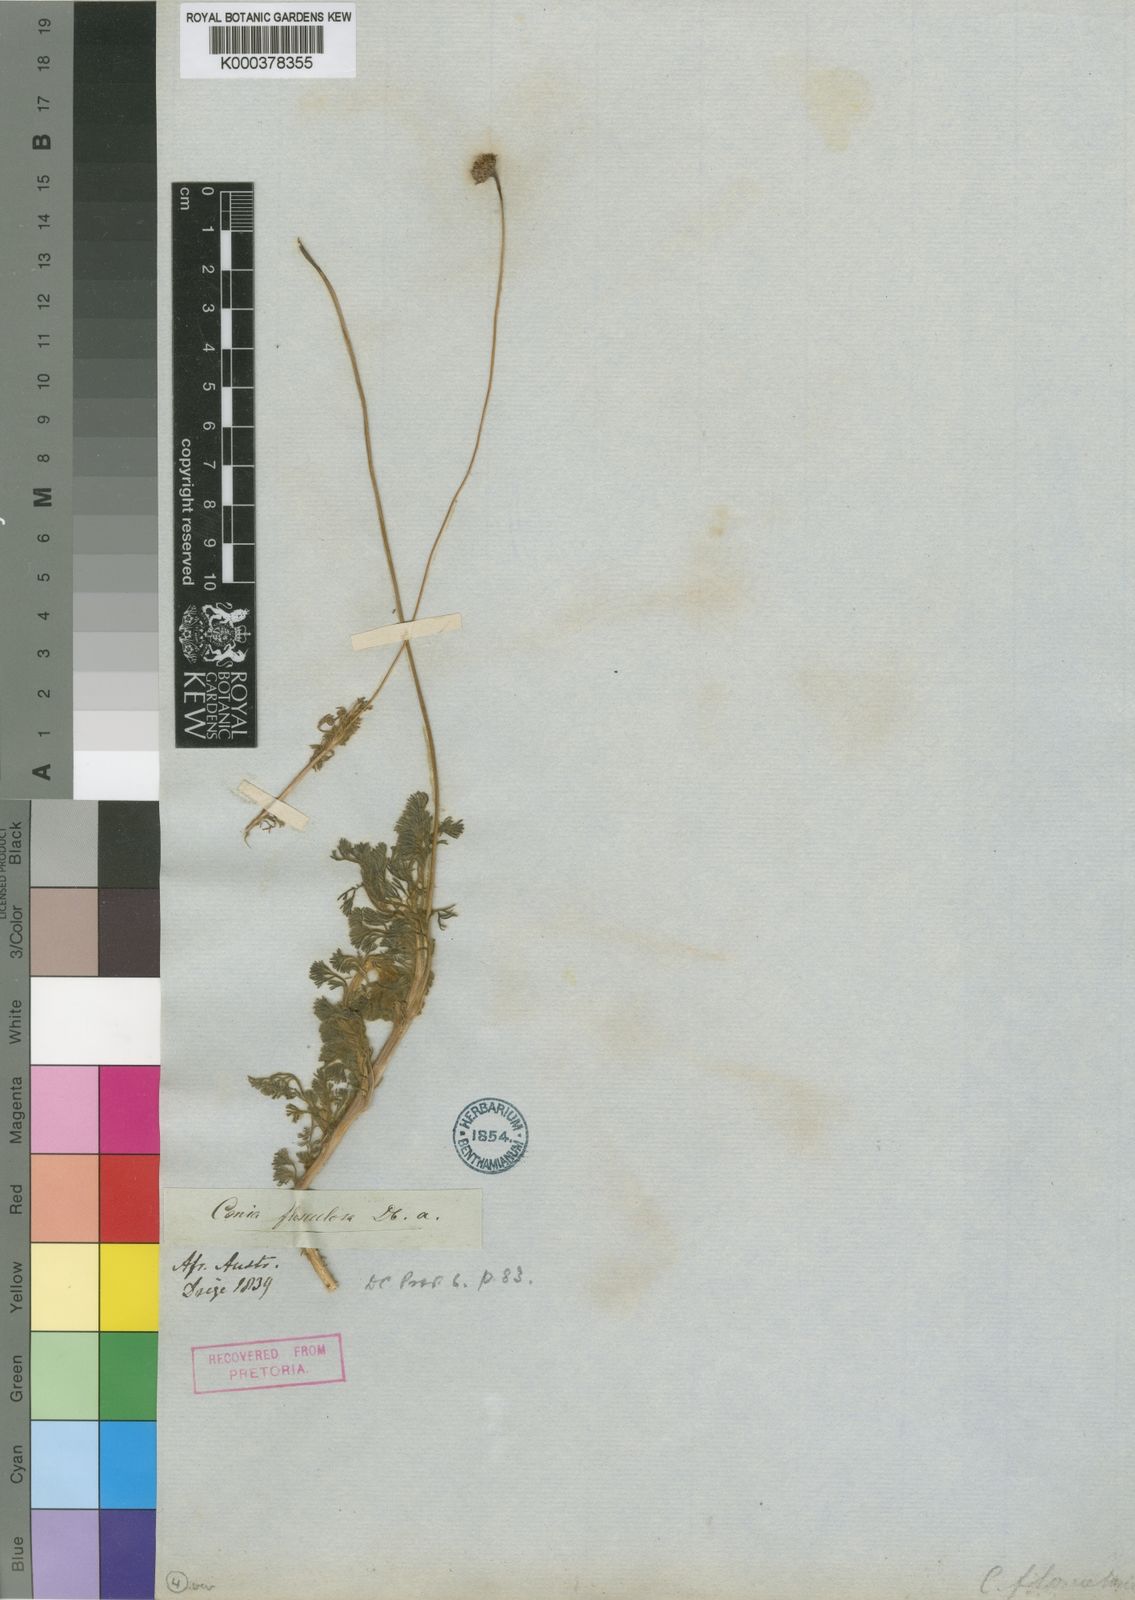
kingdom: Plantae
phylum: Tracheophyta
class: Magnoliopsida
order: Asterales
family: Asteraceae
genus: Cotula
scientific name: Cotula microglossa
